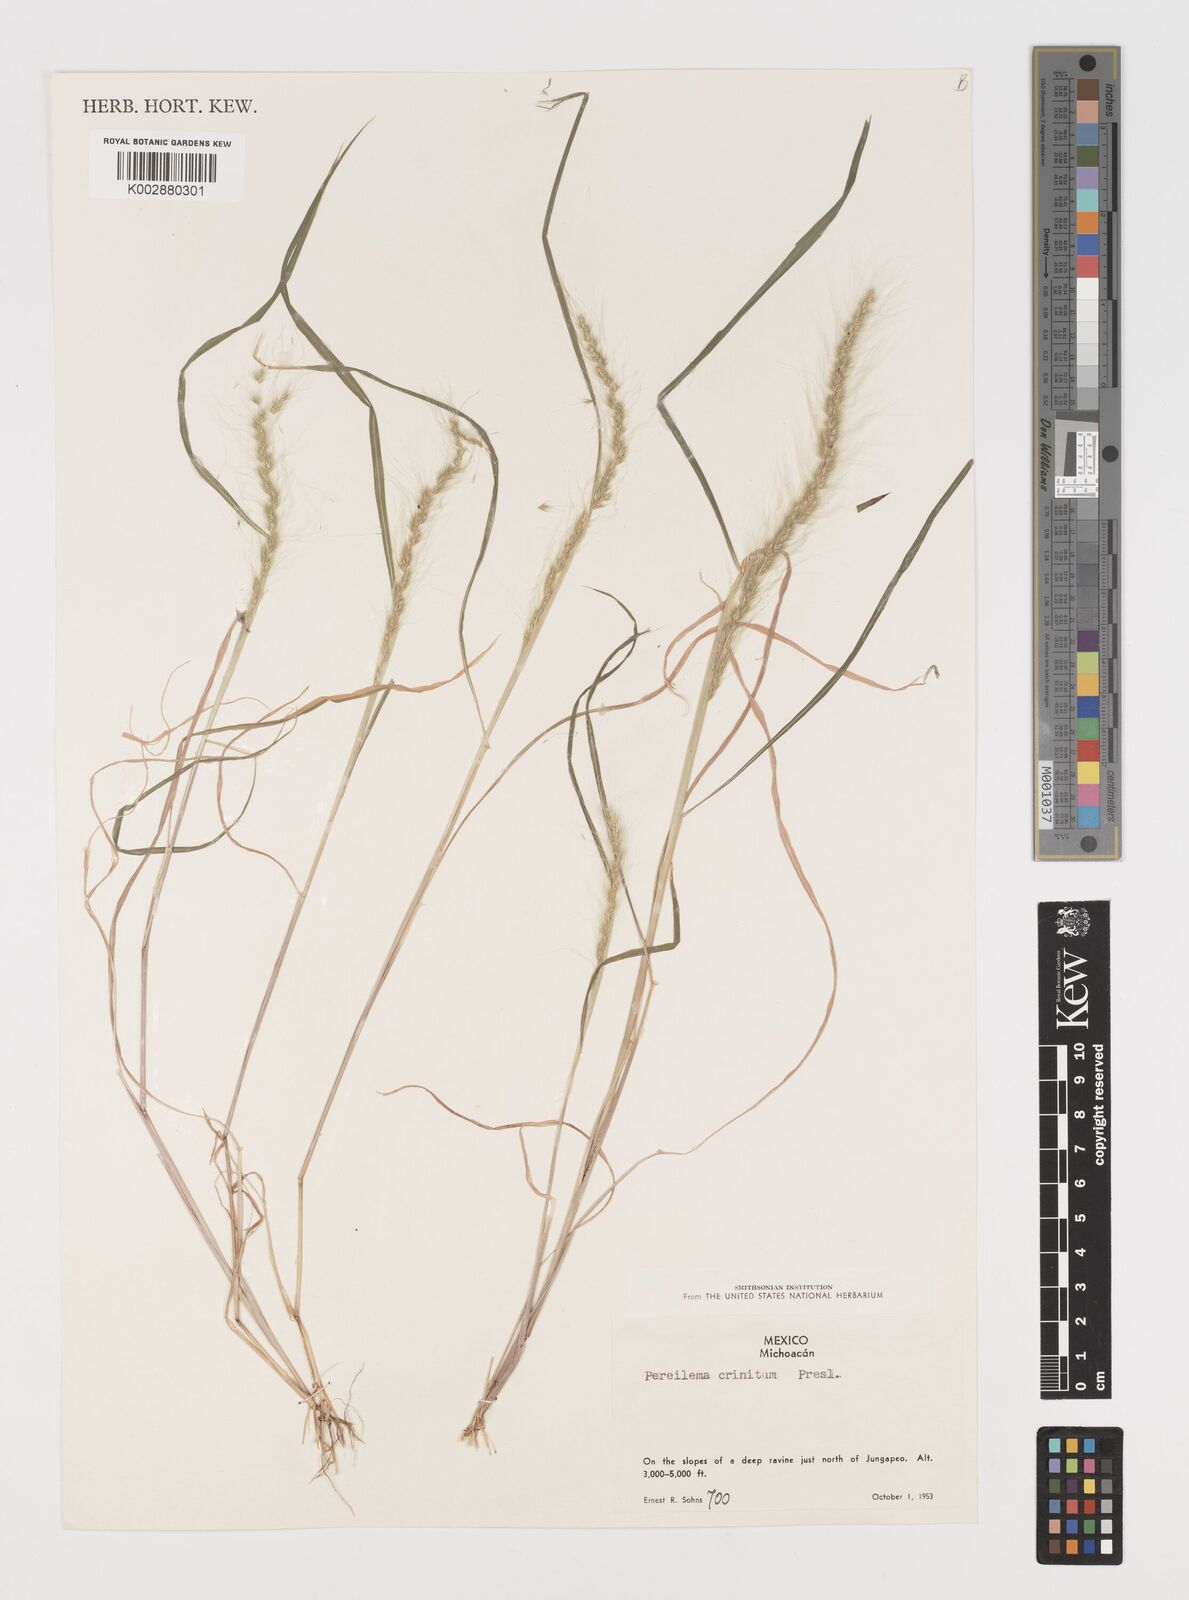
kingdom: Plantae
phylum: Tracheophyta
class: Liliopsida
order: Poales
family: Poaceae
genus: Muhlenbergia
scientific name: Muhlenbergia pereilema
